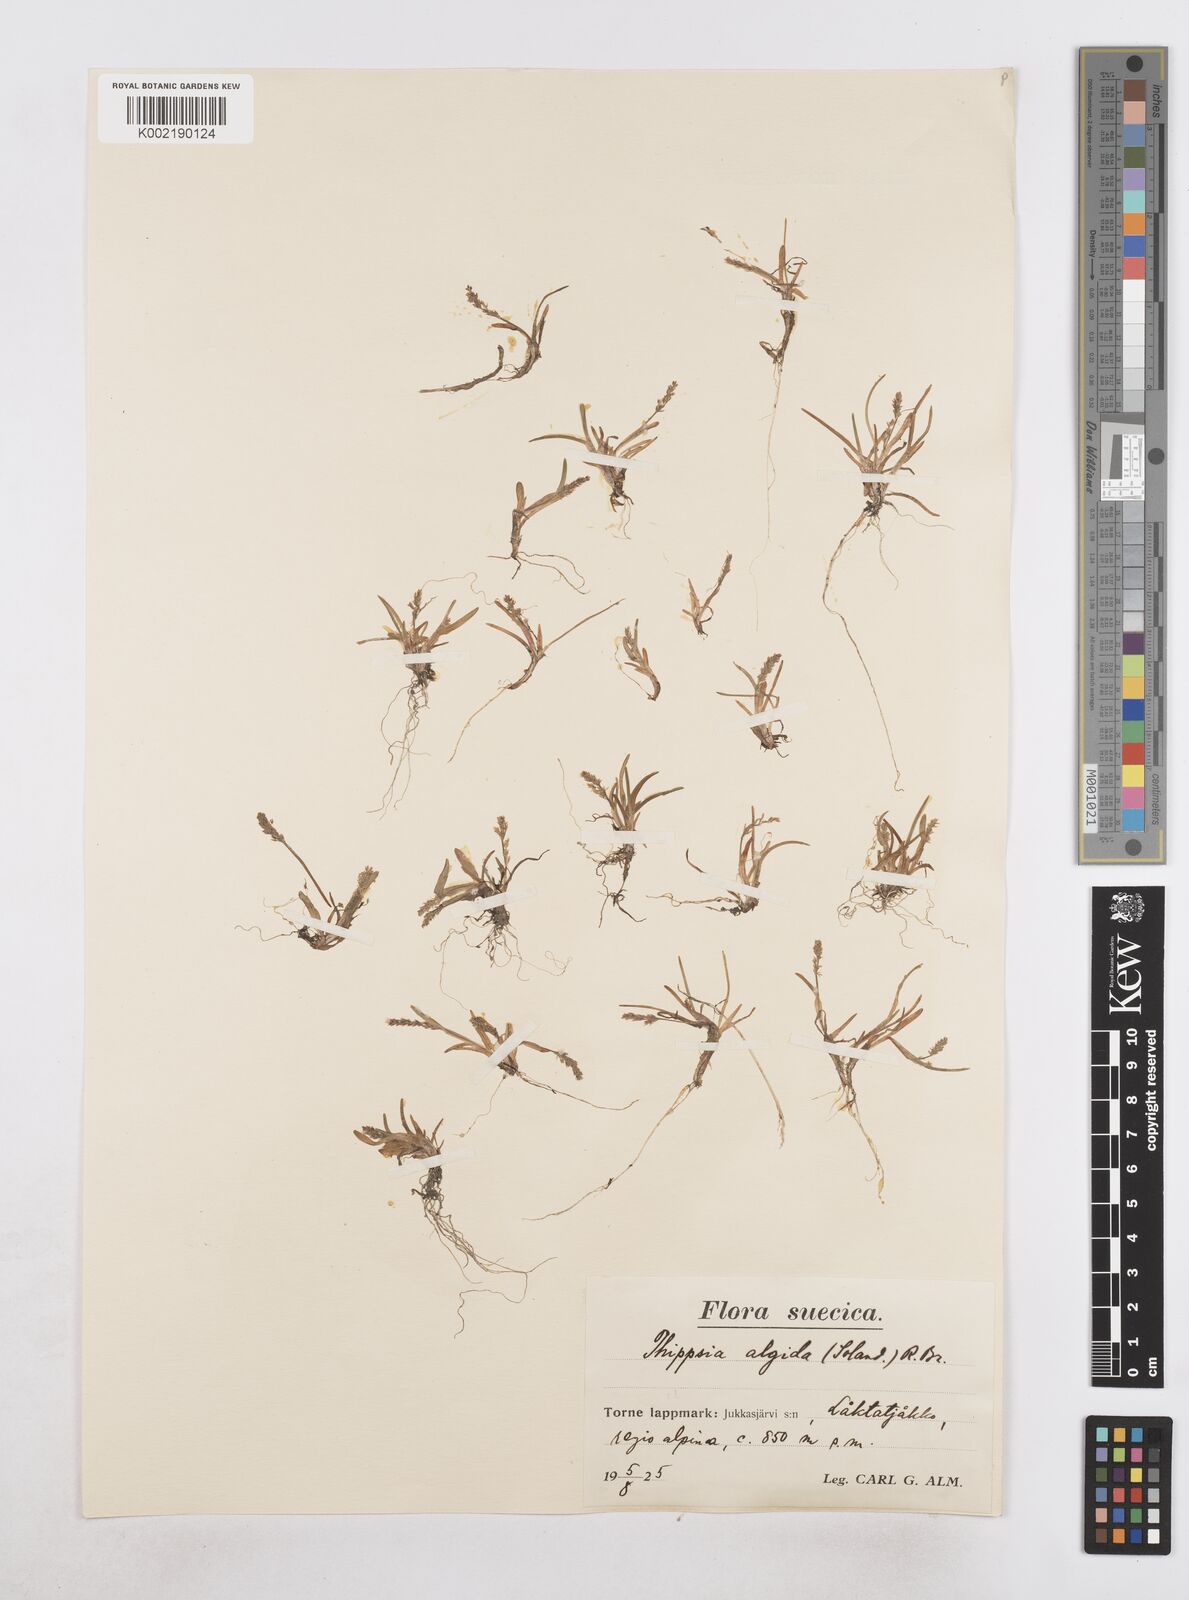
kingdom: Plantae
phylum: Tracheophyta
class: Liliopsida
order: Poales
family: Poaceae
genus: Phippsia
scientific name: Phippsia algida
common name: Ice grass
